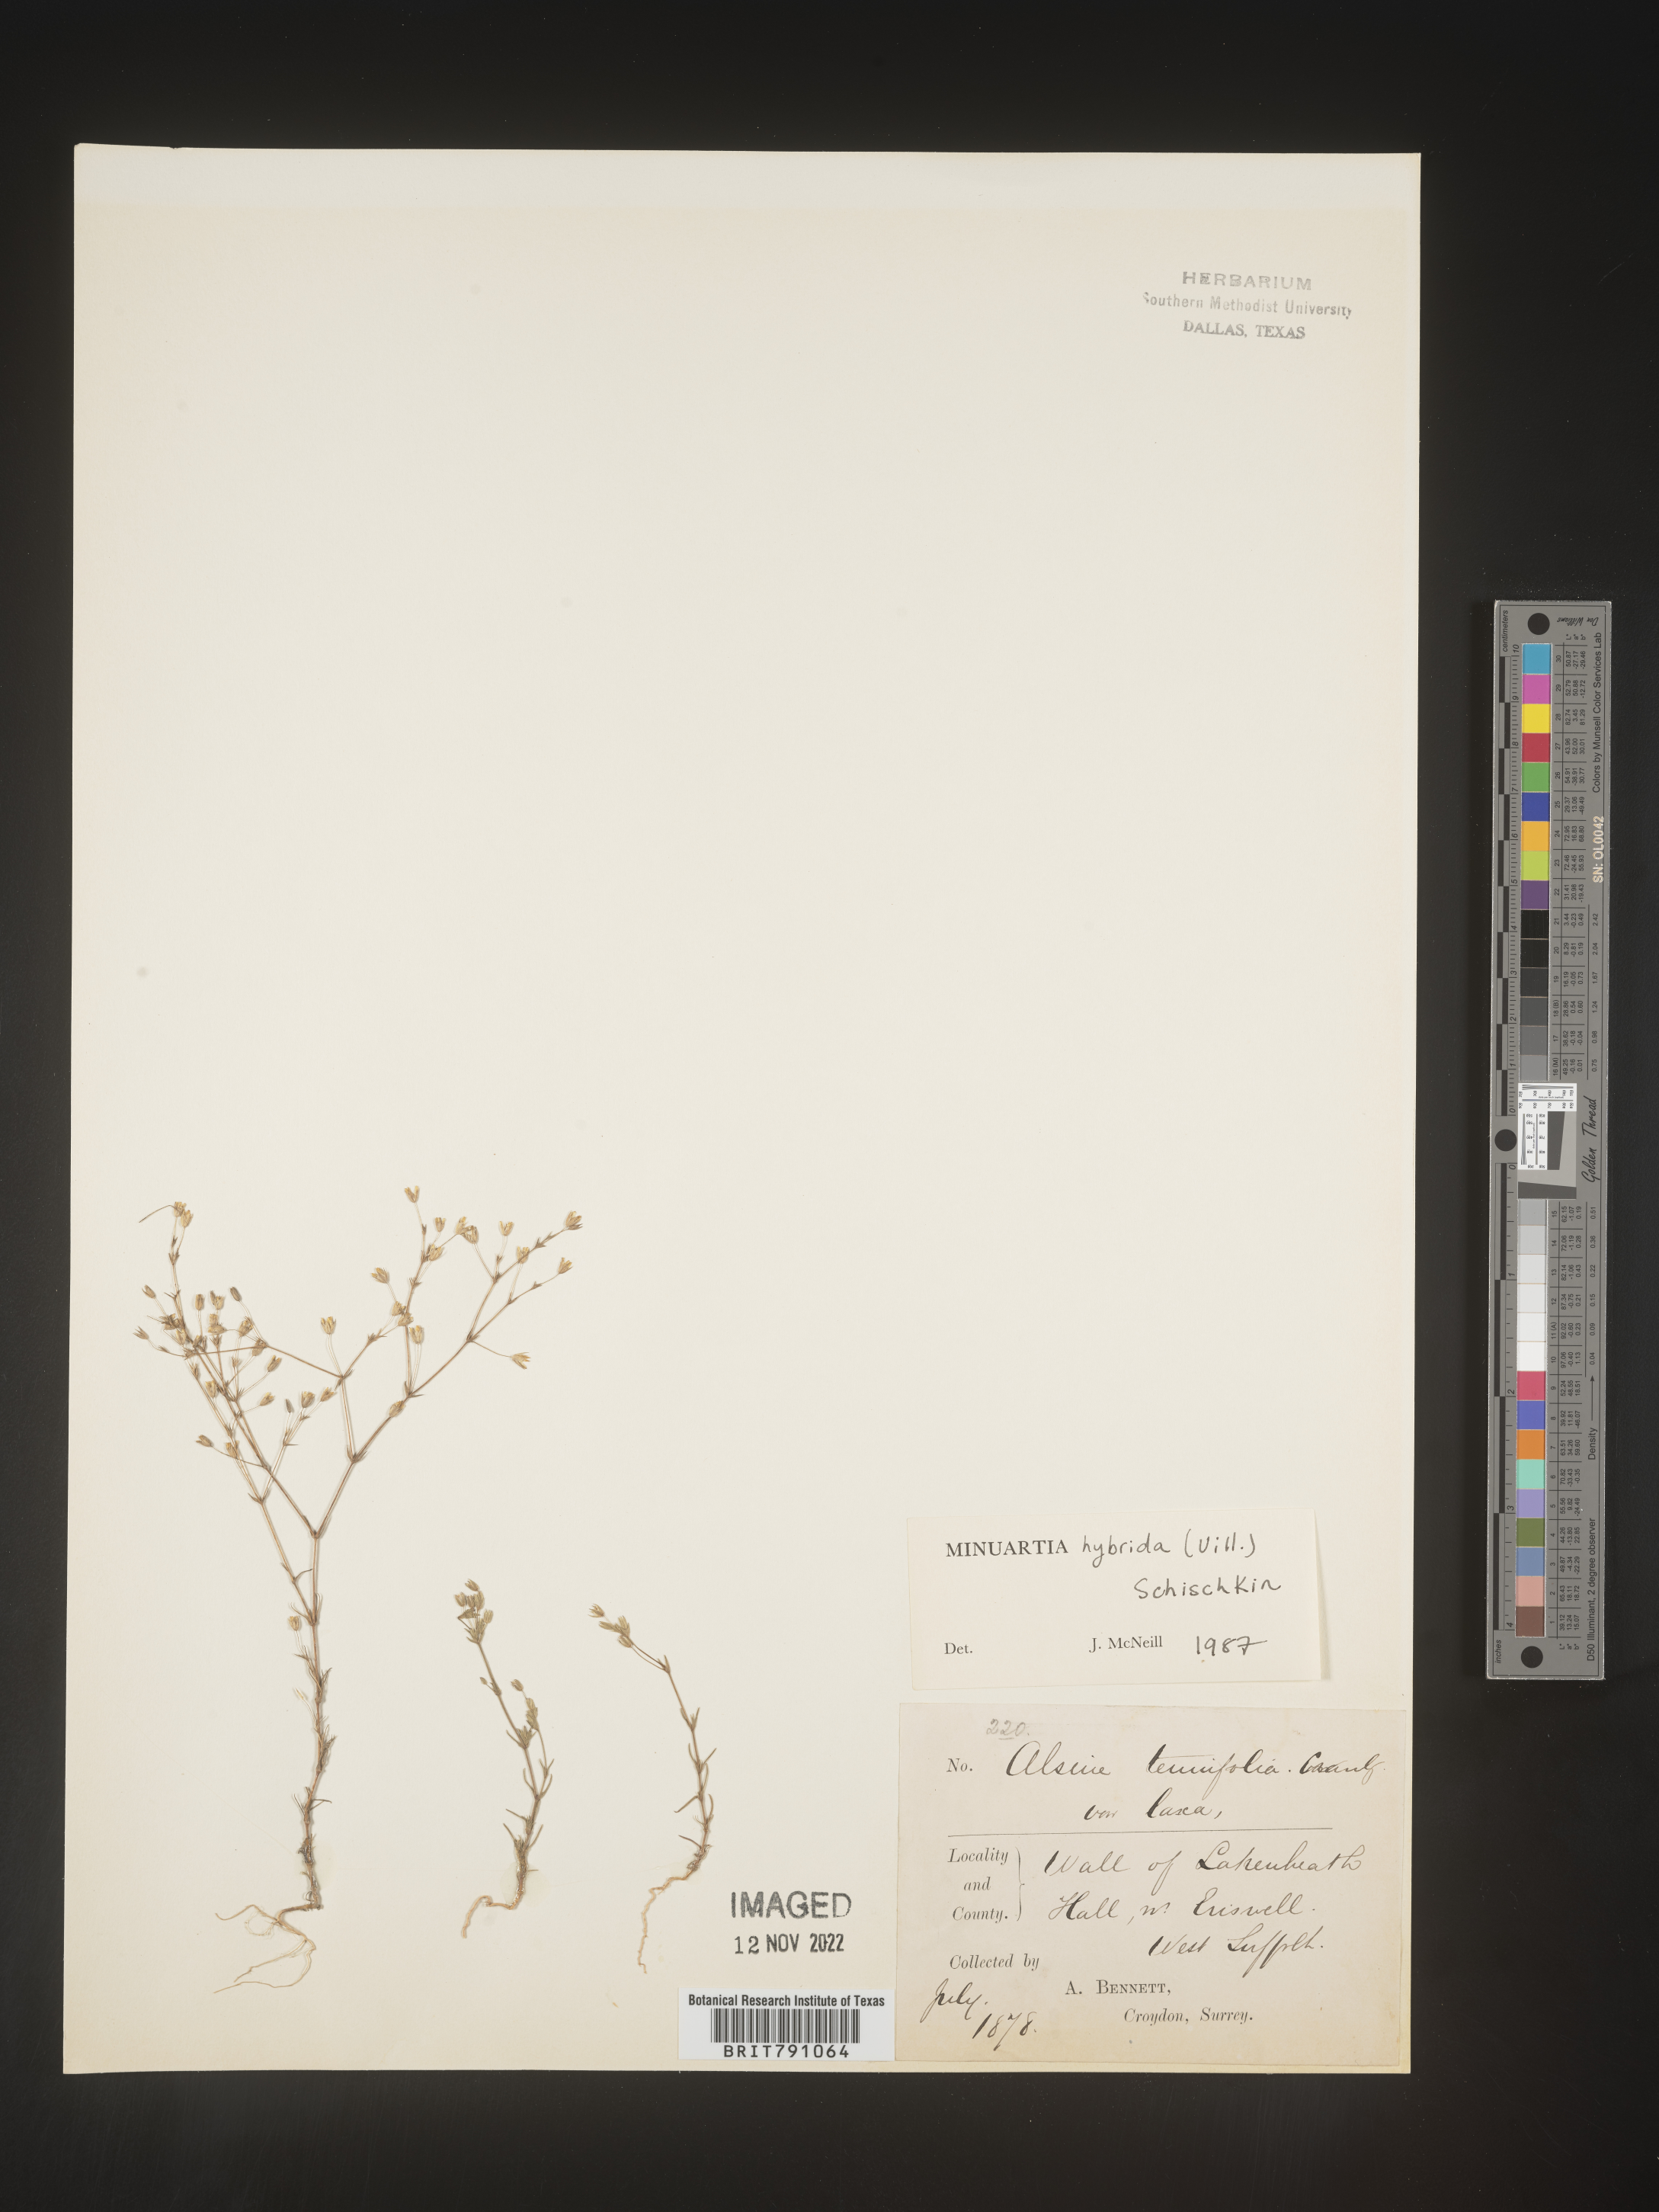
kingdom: Plantae
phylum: Tracheophyta
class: Magnoliopsida
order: Caryophyllales
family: Caryophyllaceae
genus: Minuartia
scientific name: Minuartia
